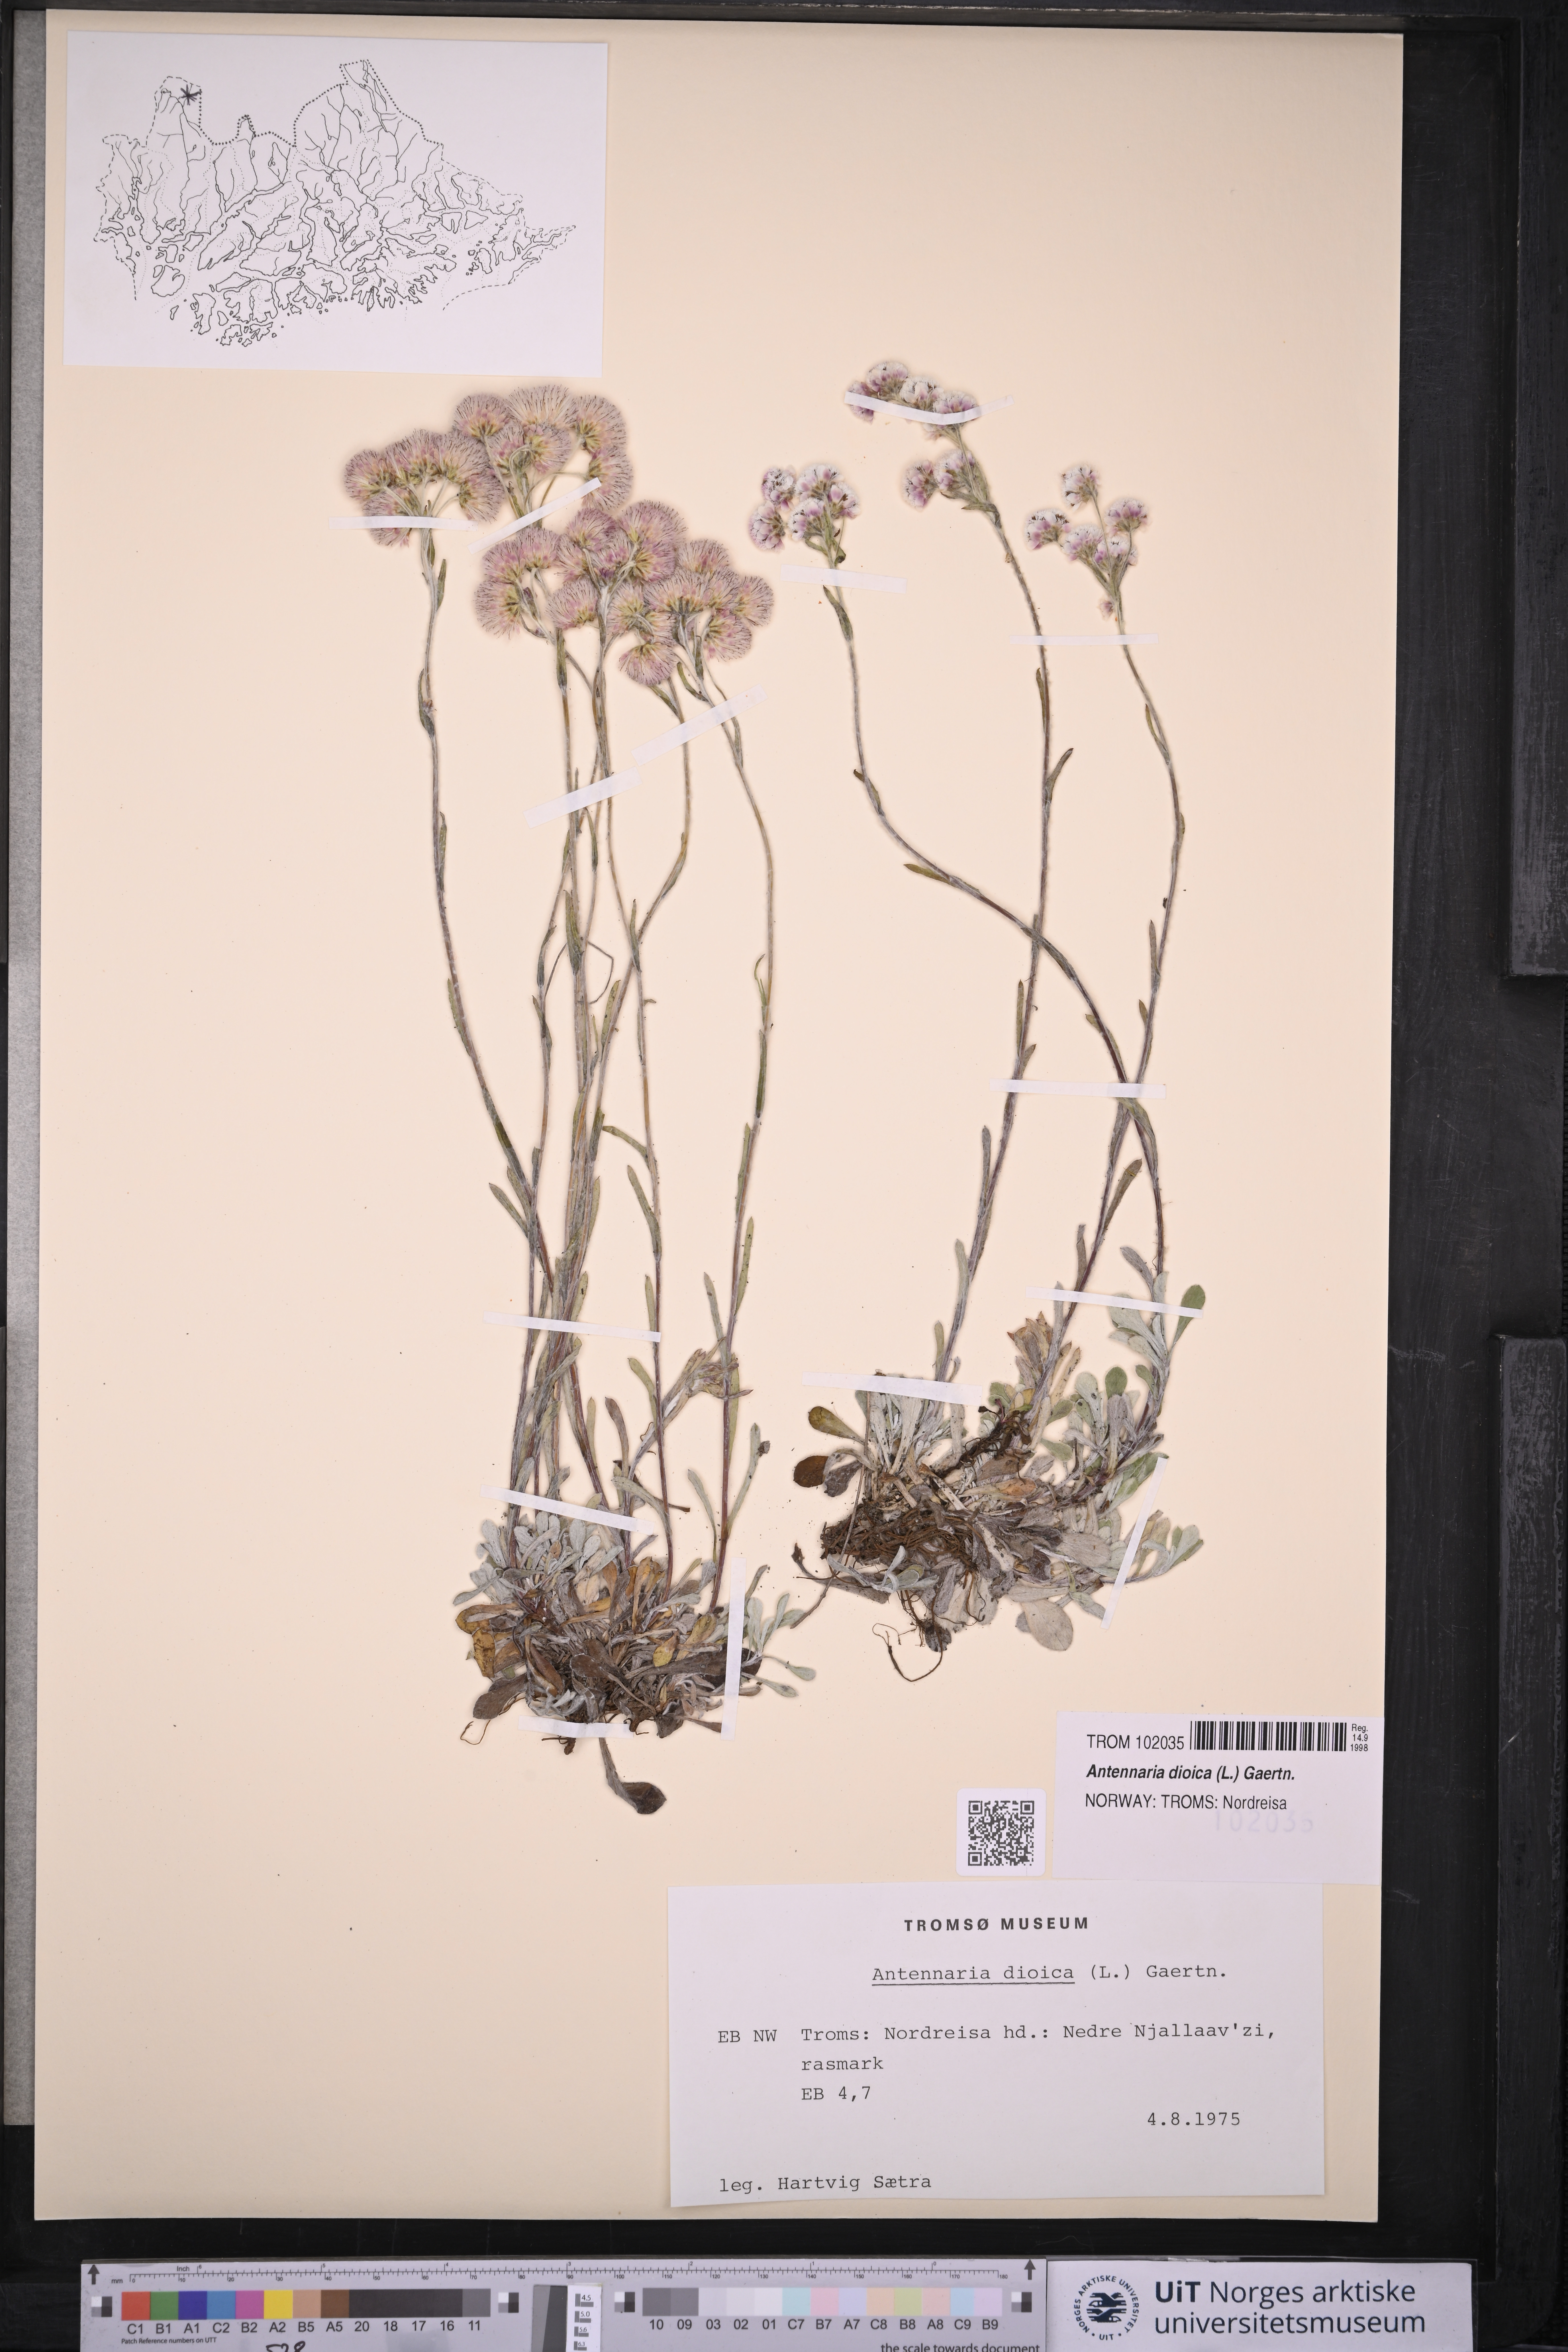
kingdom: Plantae
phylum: Tracheophyta
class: Magnoliopsida
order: Asterales
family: Asteraceae
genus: Antennaria
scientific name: Antennaria dioica
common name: Mountain everlasting
